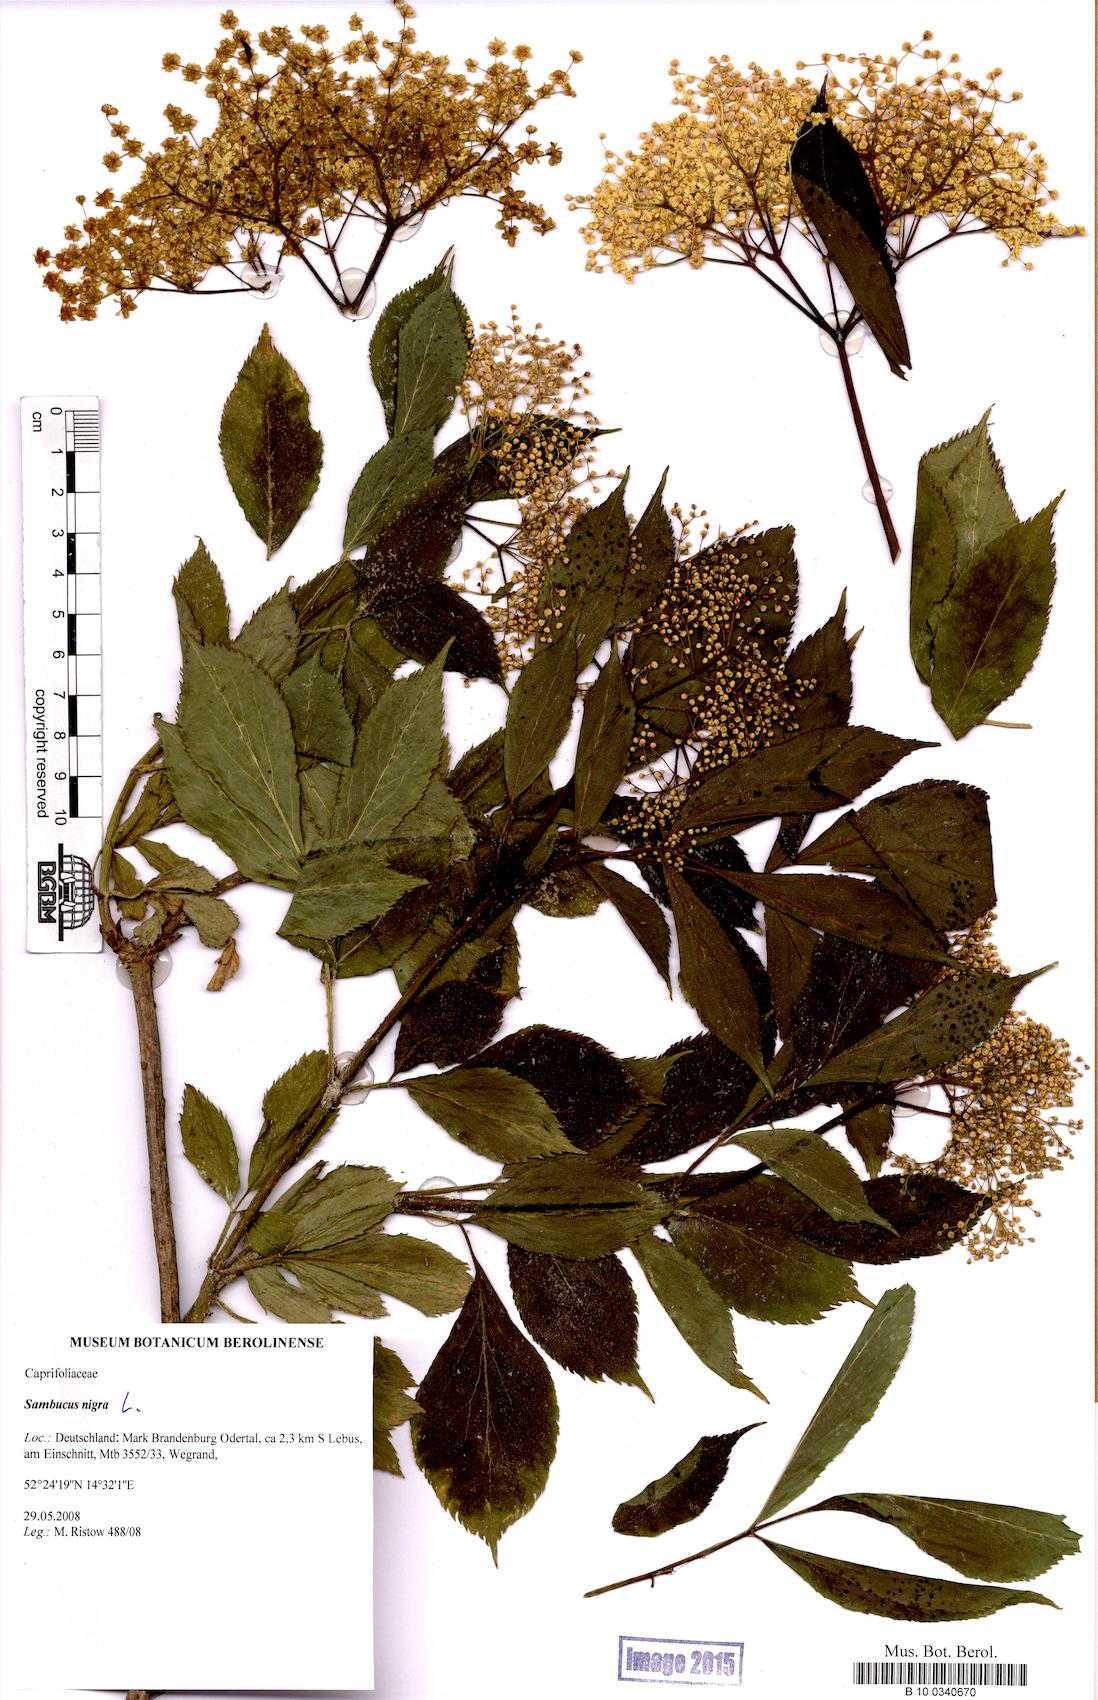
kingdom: Plantae
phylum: Tracheophyta
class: Magnoliopsida
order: Dipsacales
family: Viburnaceae
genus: Sambucus
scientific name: Sambucus nigra
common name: Elder
